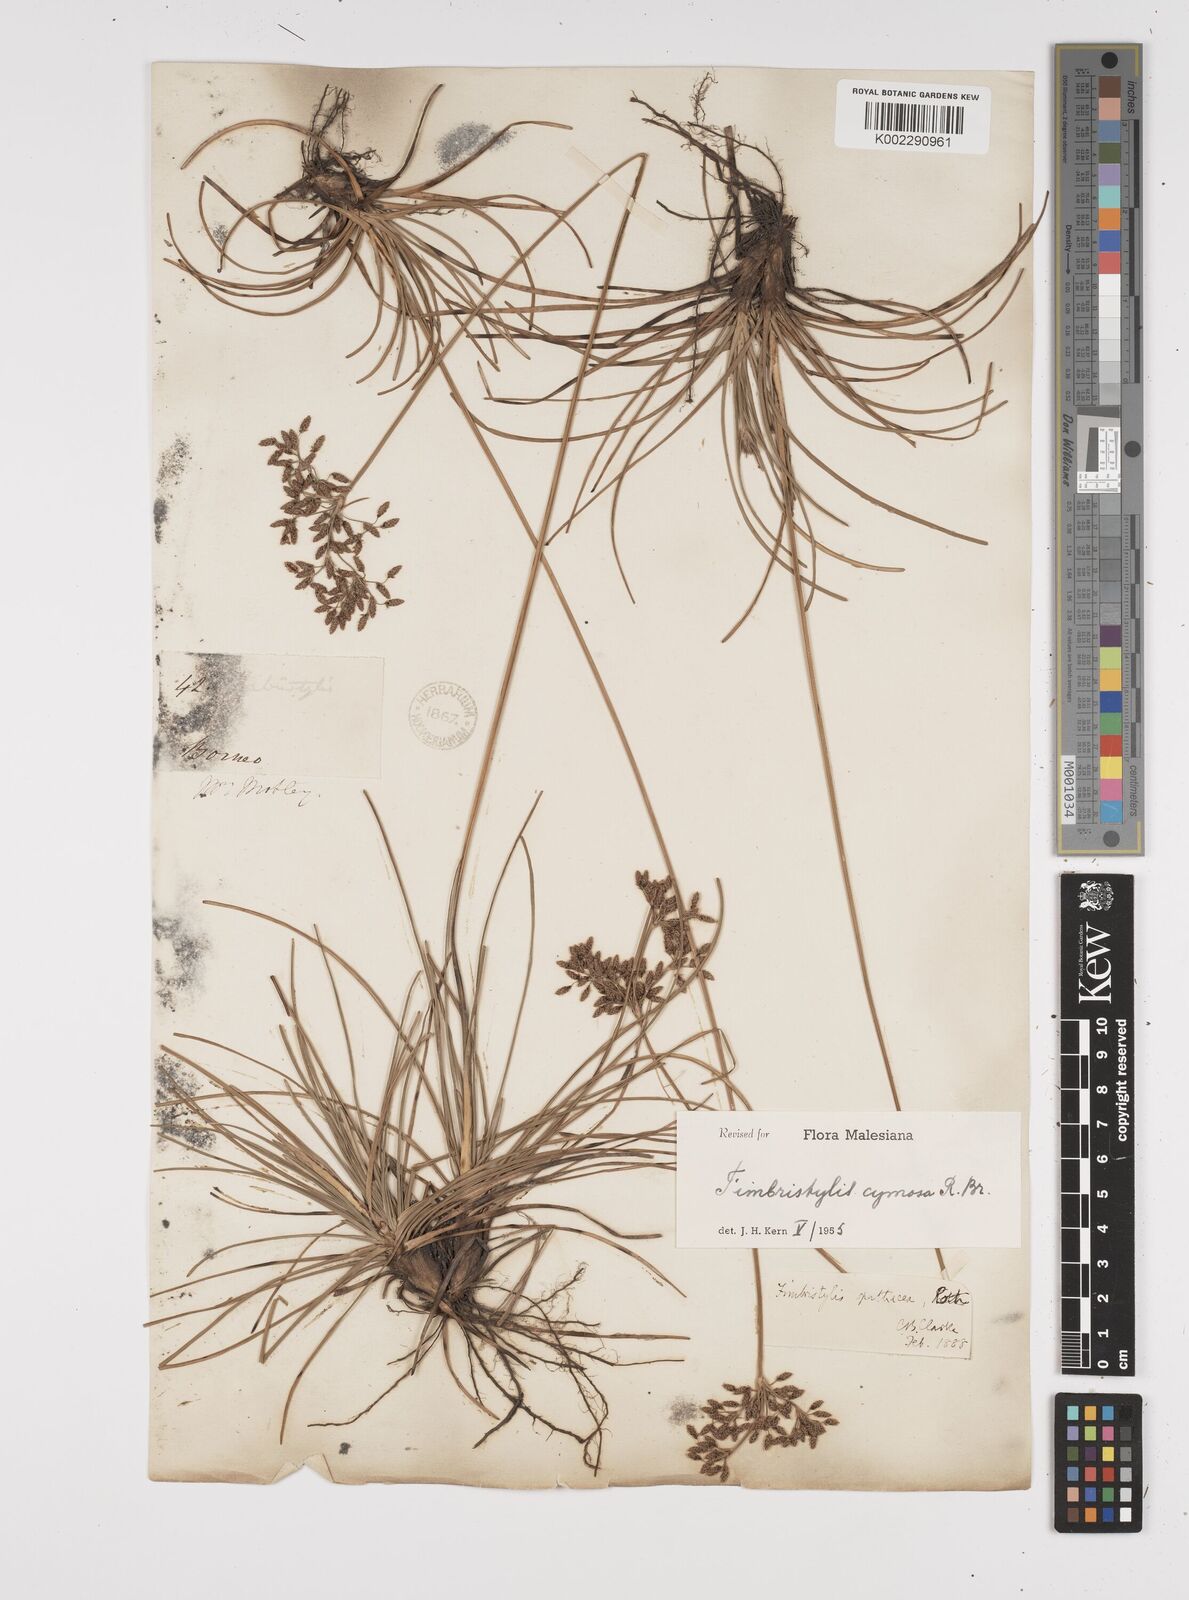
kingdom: Plantae
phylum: Tracheophyta
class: Liliopsida
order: Poales
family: Cyperaceae
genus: Fimbristylis
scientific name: Fimbristylis cymosa
